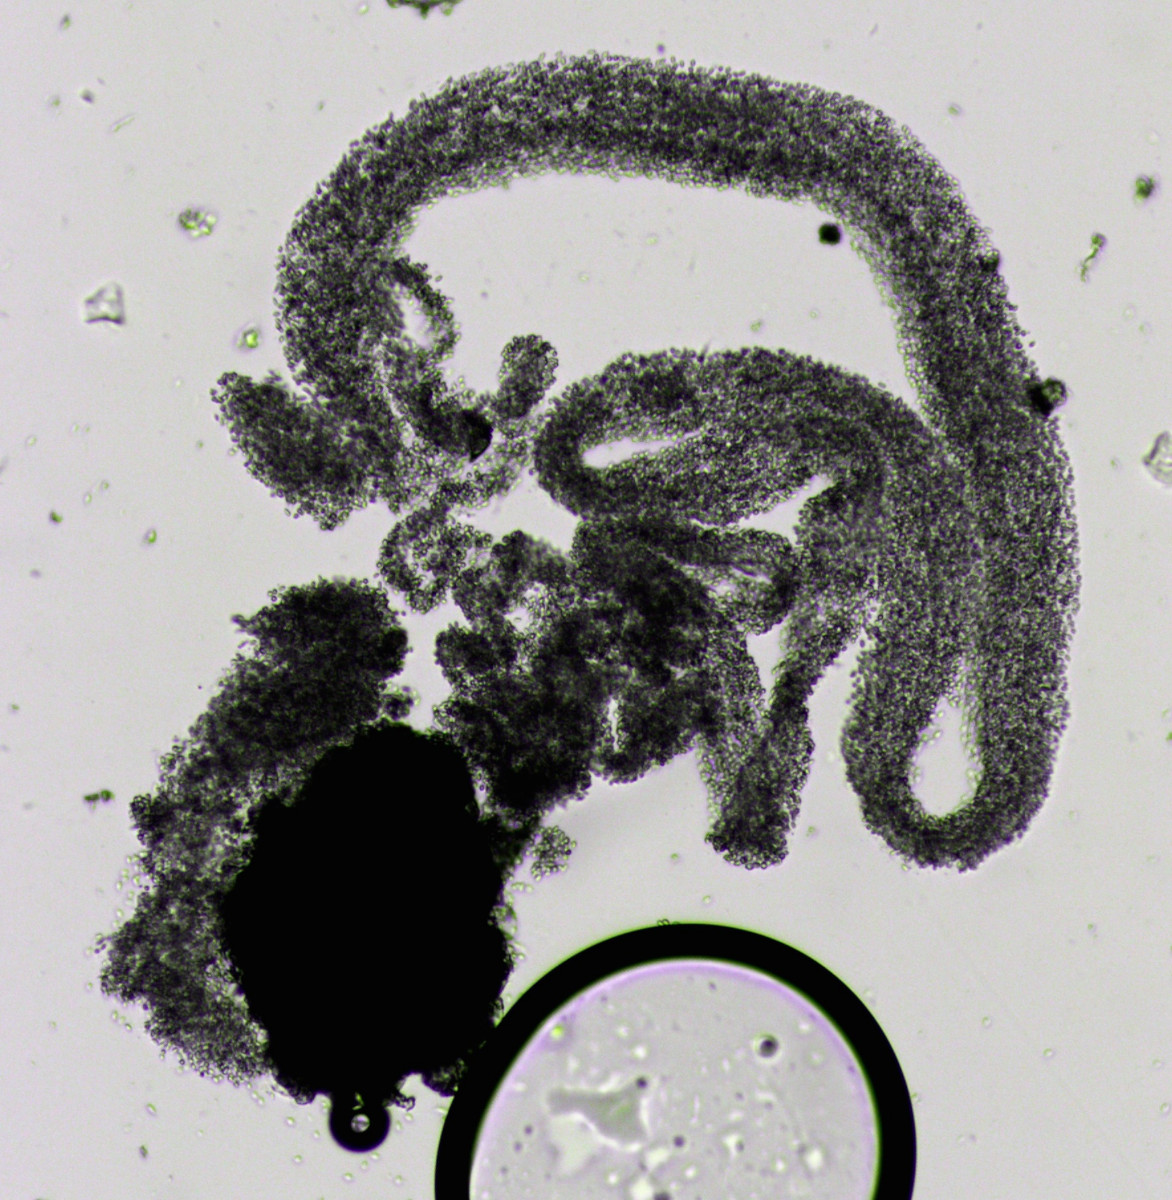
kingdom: Fungi
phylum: Ascomycota
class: Dothideomycetes
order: Pleosporales
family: Didymellaceae
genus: Boeremia
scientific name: Boeremia hedericola
